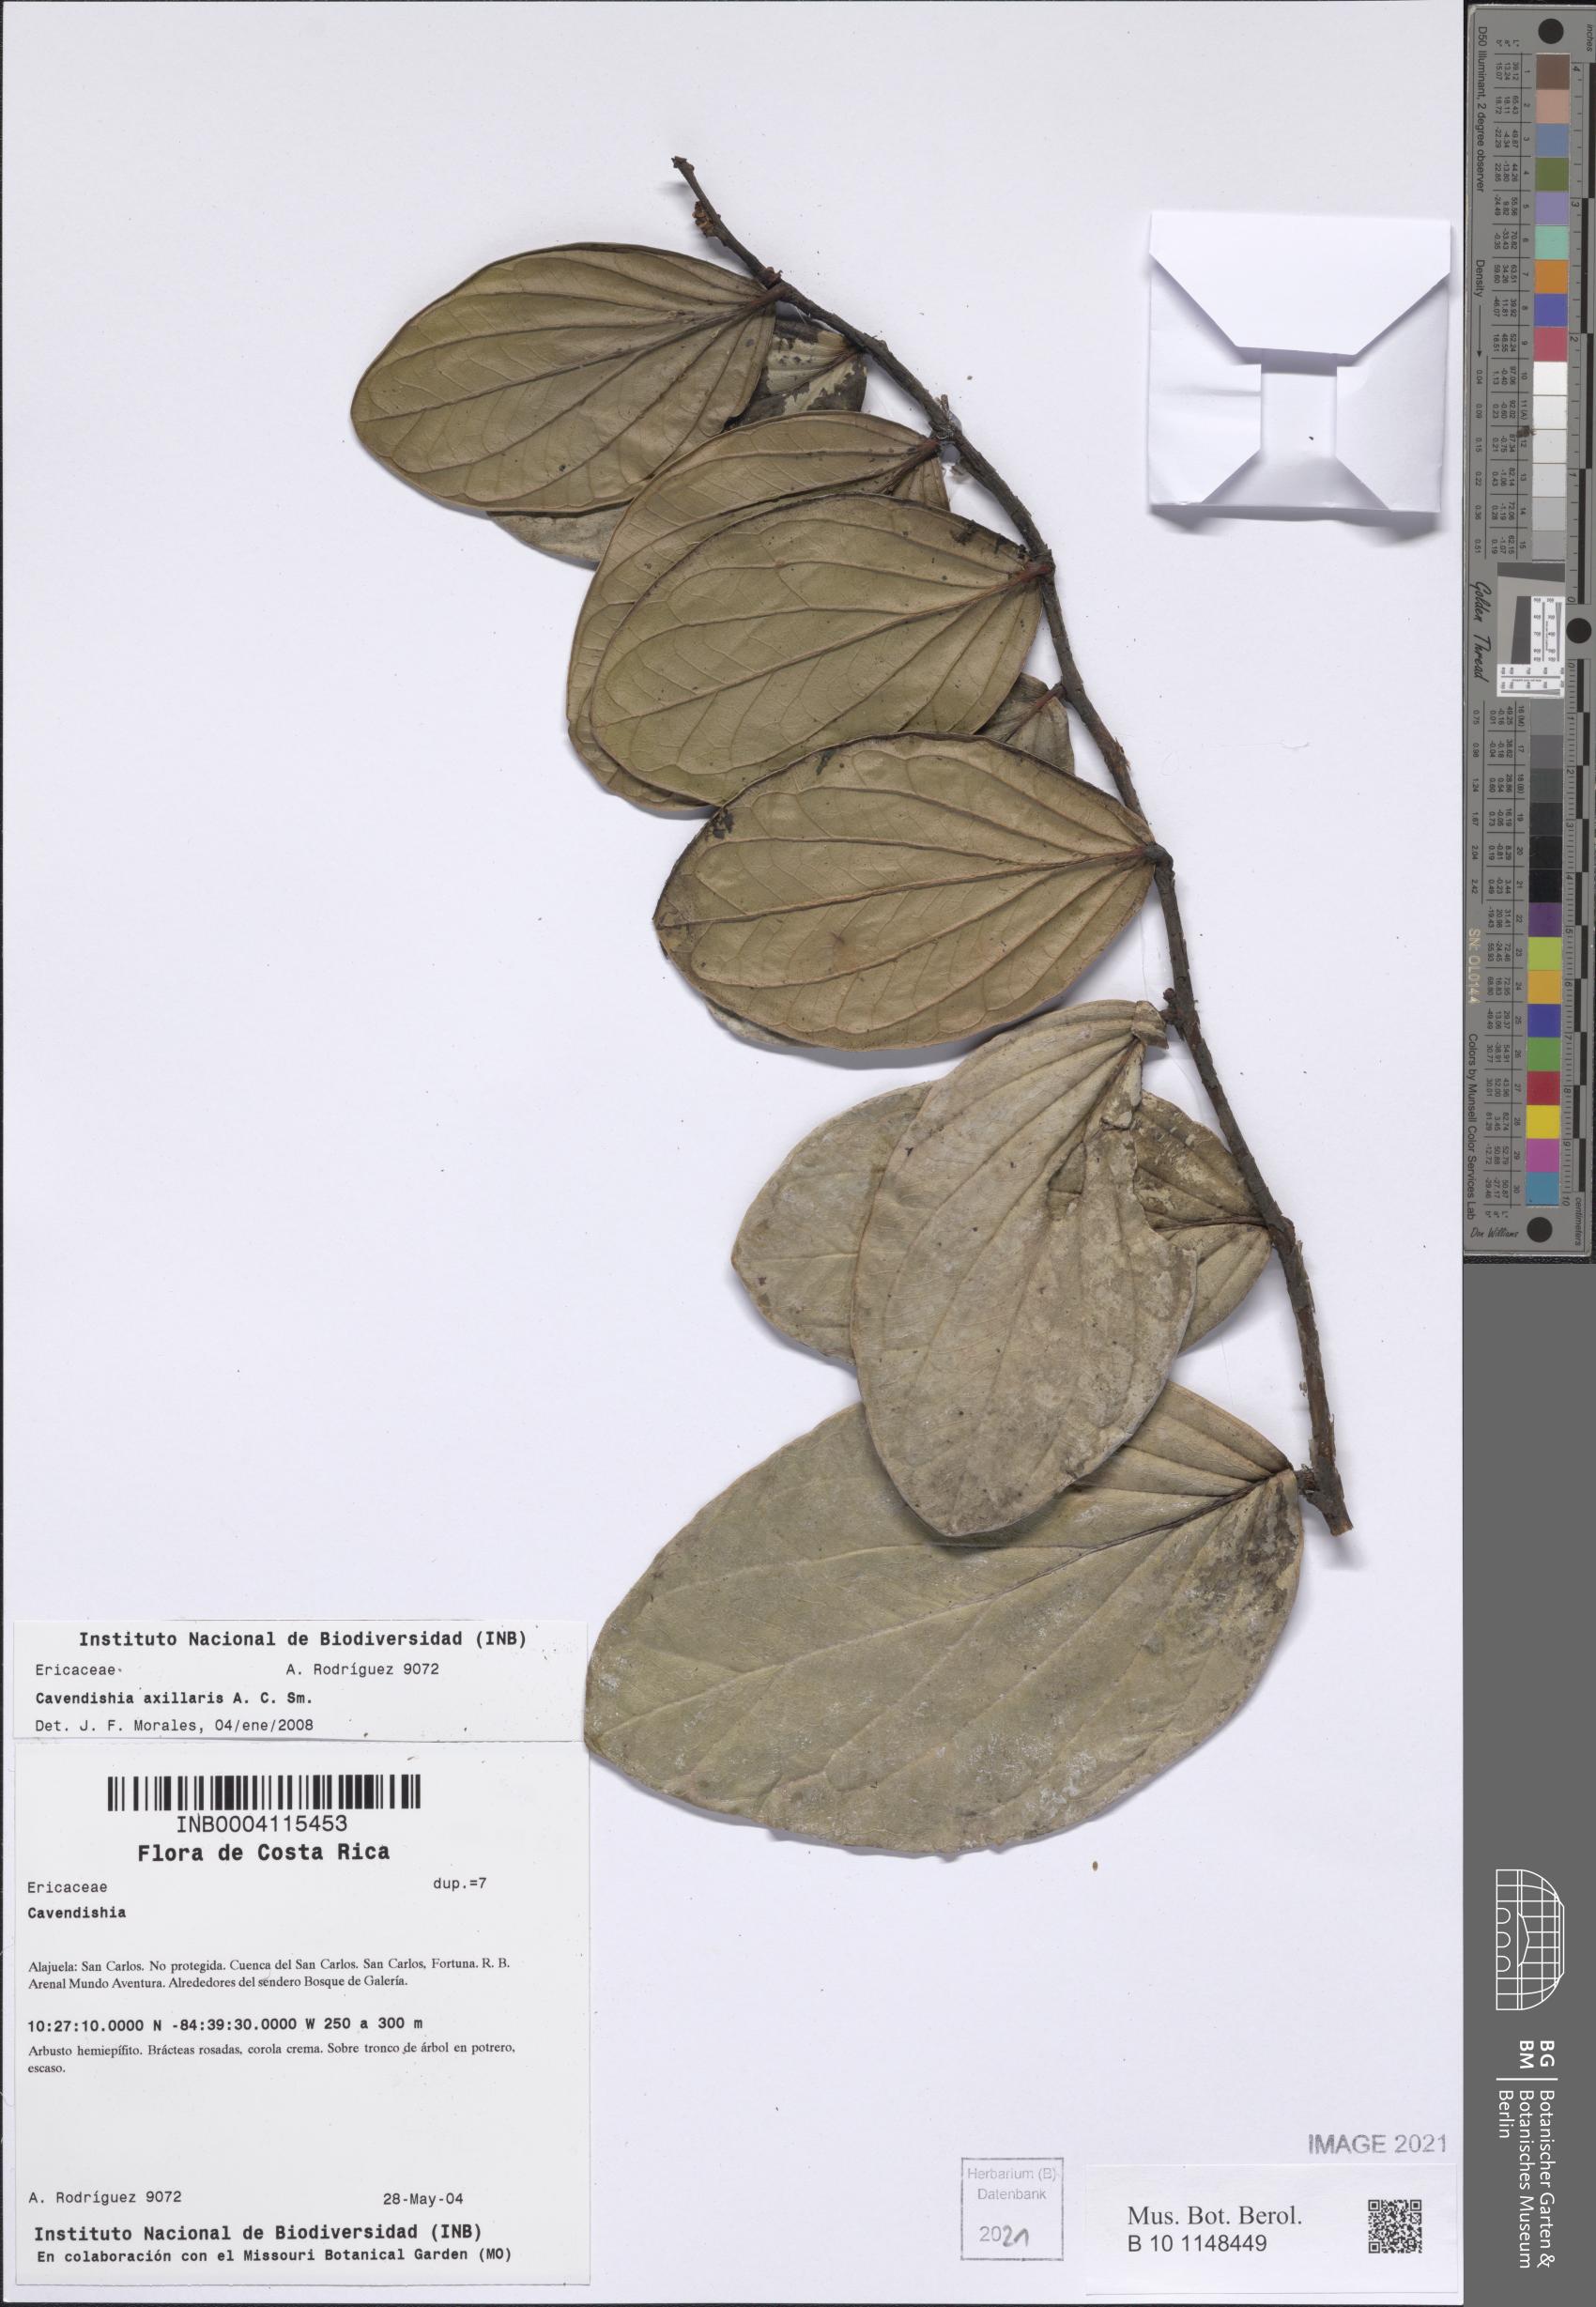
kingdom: Plantae
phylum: Tracheophyta
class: Magnoliopsida
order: Ericales
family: Ericaceae
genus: Cavendishia
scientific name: Cavendishia axillaris
